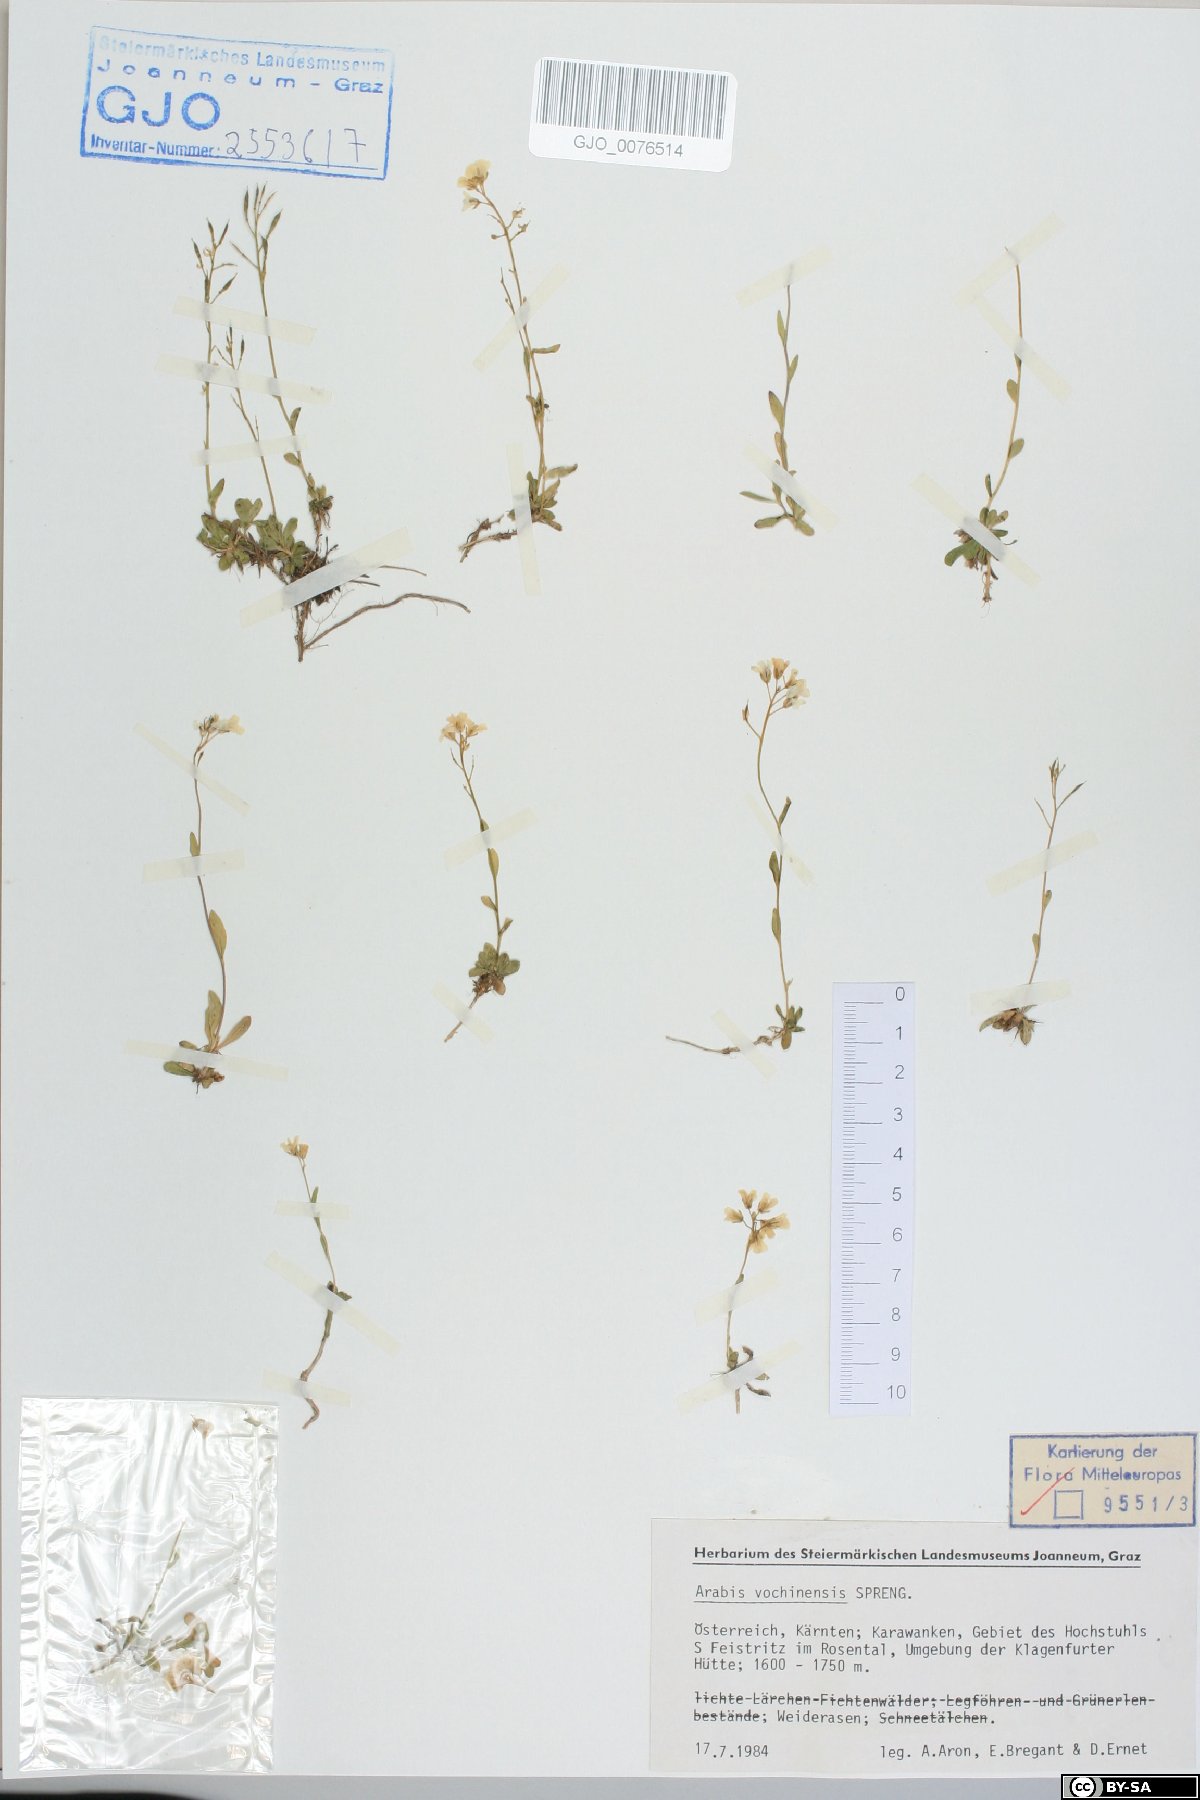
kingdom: Plantae
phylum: Tracheophyta
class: Magnoliopsida
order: Brassicales
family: Brassicaceae
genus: Arabis
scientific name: Arabis vochinensis
